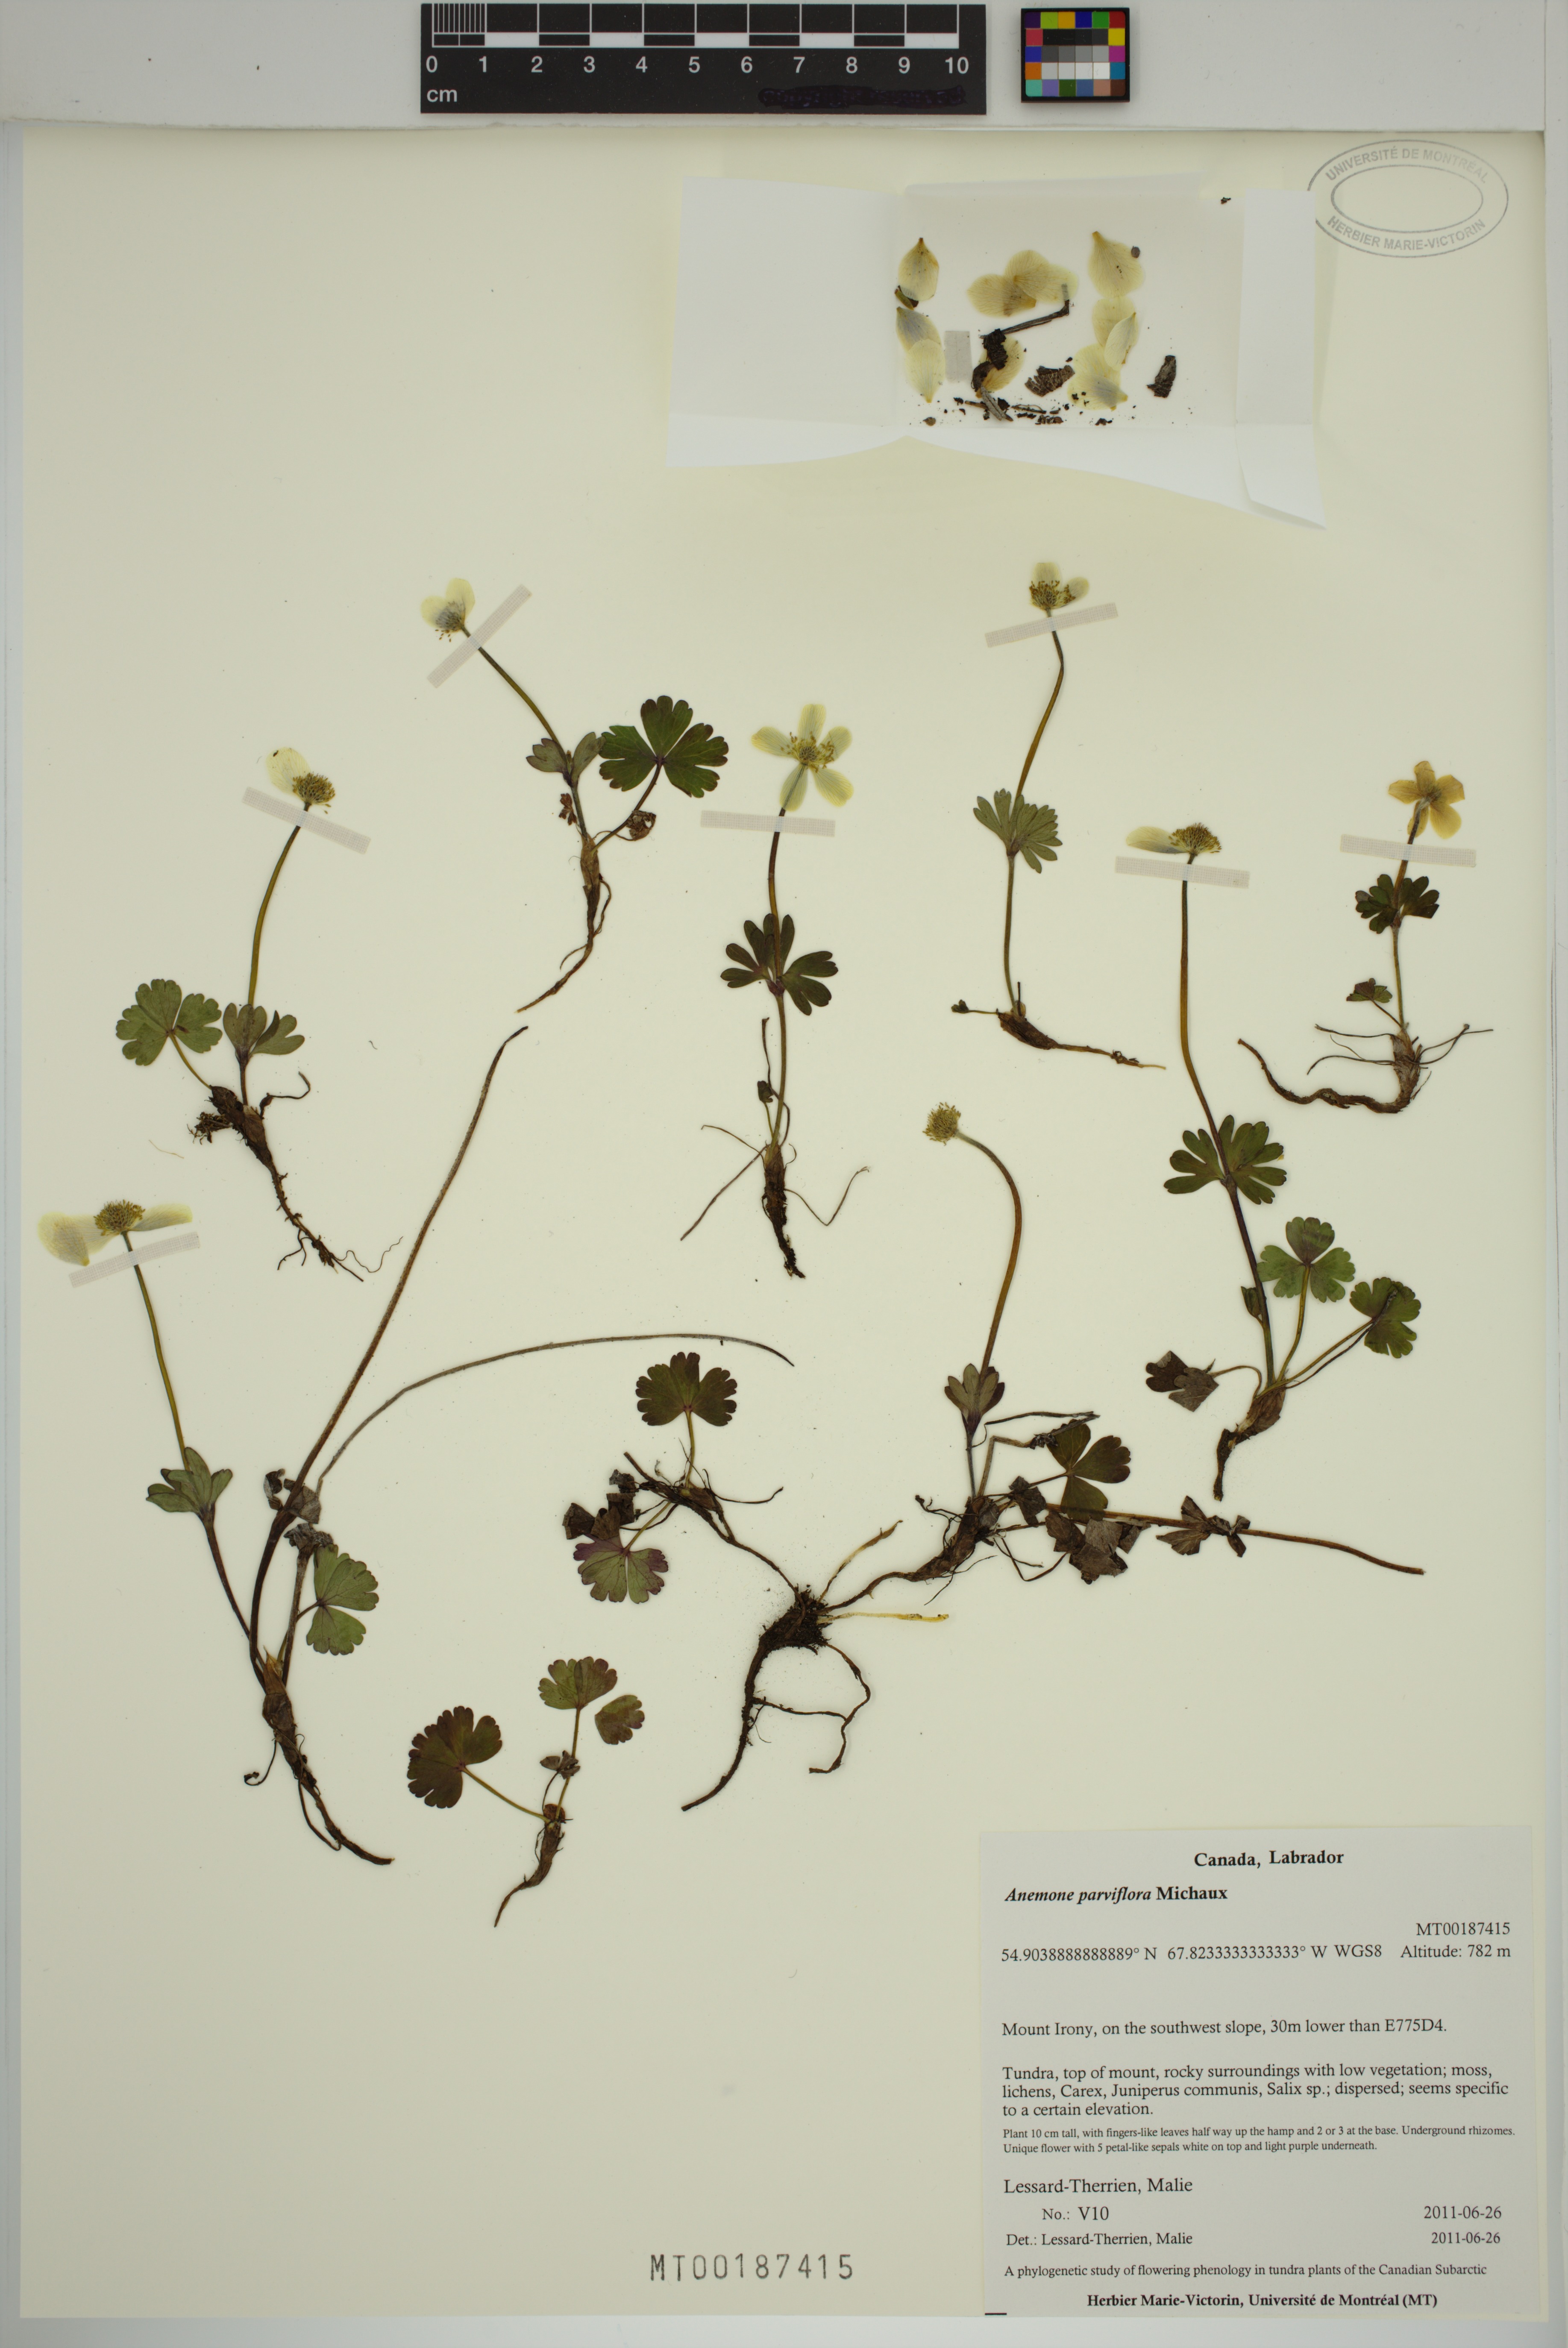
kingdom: Plantae
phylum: Tracheophyta
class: Magnoliopsida
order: Ranunculales
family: Ranunculaceae
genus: Anemone
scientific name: Anemone parviflora
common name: Northern anemone
